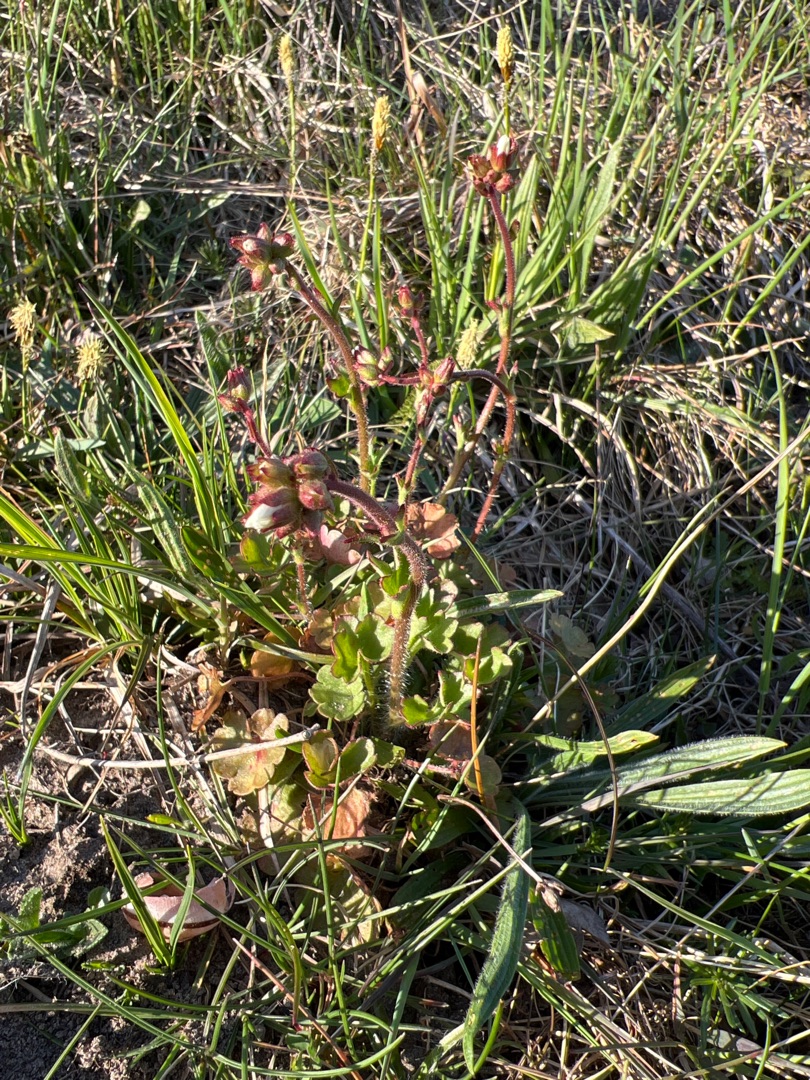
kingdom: Plantae
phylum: Tracheophyta
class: Magnoliopsida
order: Saxifragales
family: Saxifragaceae
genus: Saxifraga
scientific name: Saxifraga granulata
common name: Kornet stenbræk
